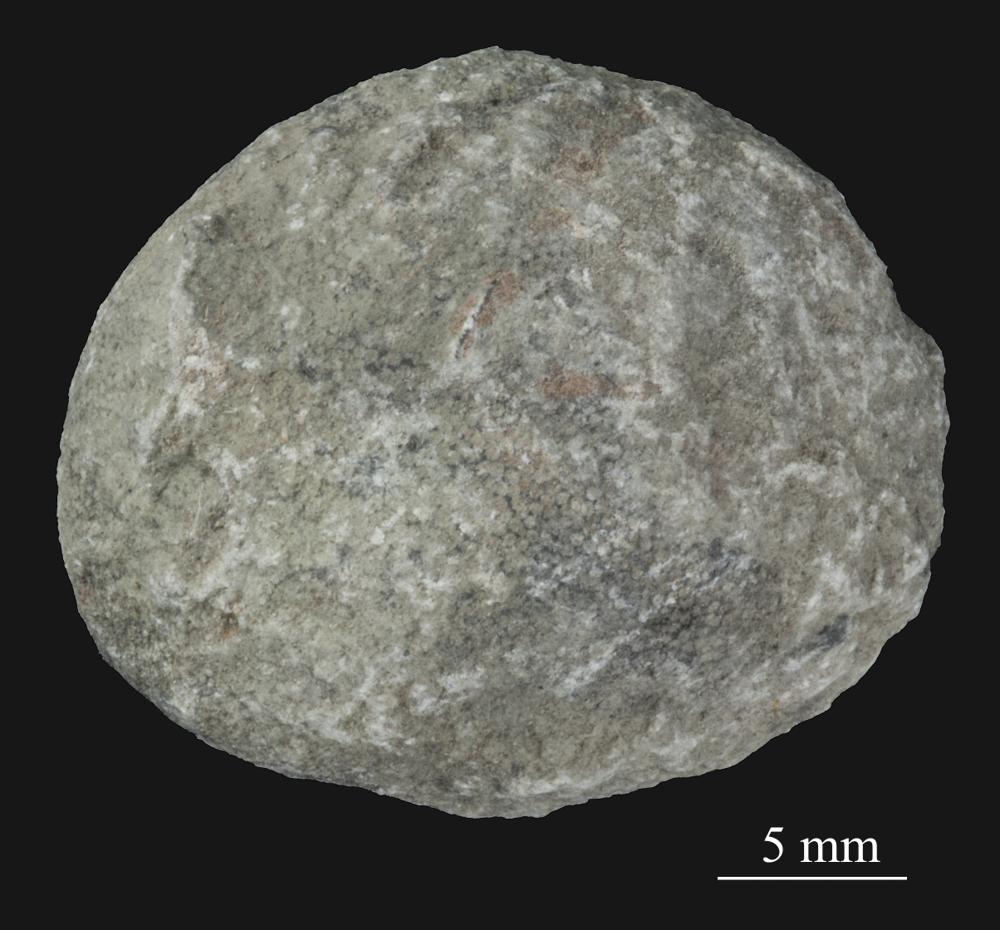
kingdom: Animalia
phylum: Bryozoa
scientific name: Bryozoa
